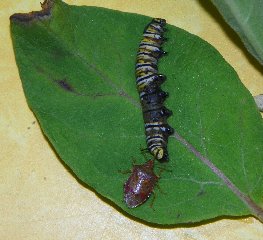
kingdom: Animalia
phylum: Arthropoda
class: Insecta
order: Lepidoptera
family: Nymphalidae
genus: Danaus
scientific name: Danaus plexippus
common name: Monarch
